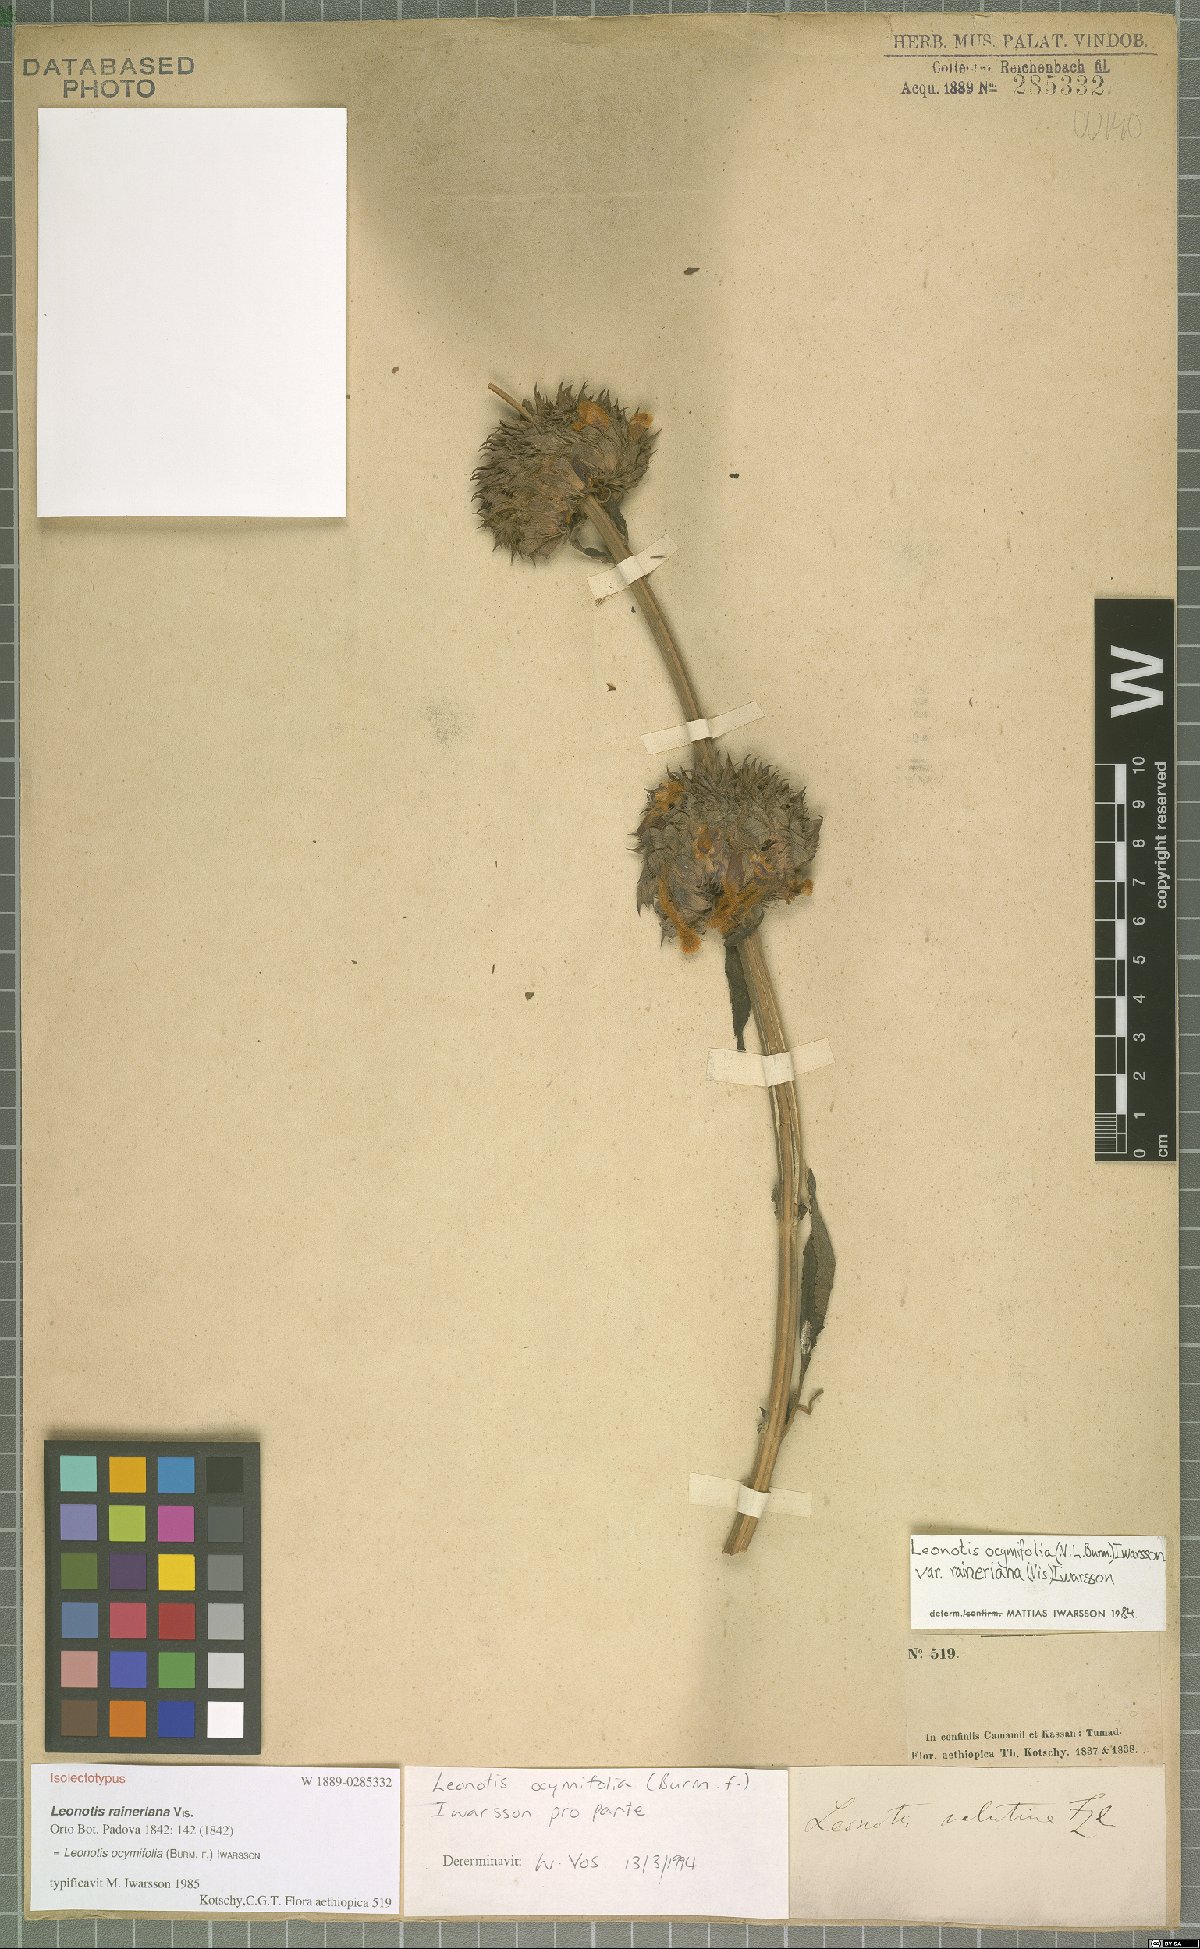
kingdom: Plantae
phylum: Tracheophyta
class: Magnoliopsida
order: Lamiales
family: Lamiaceae
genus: Leonotis
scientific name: Leonotis ocymifolia
